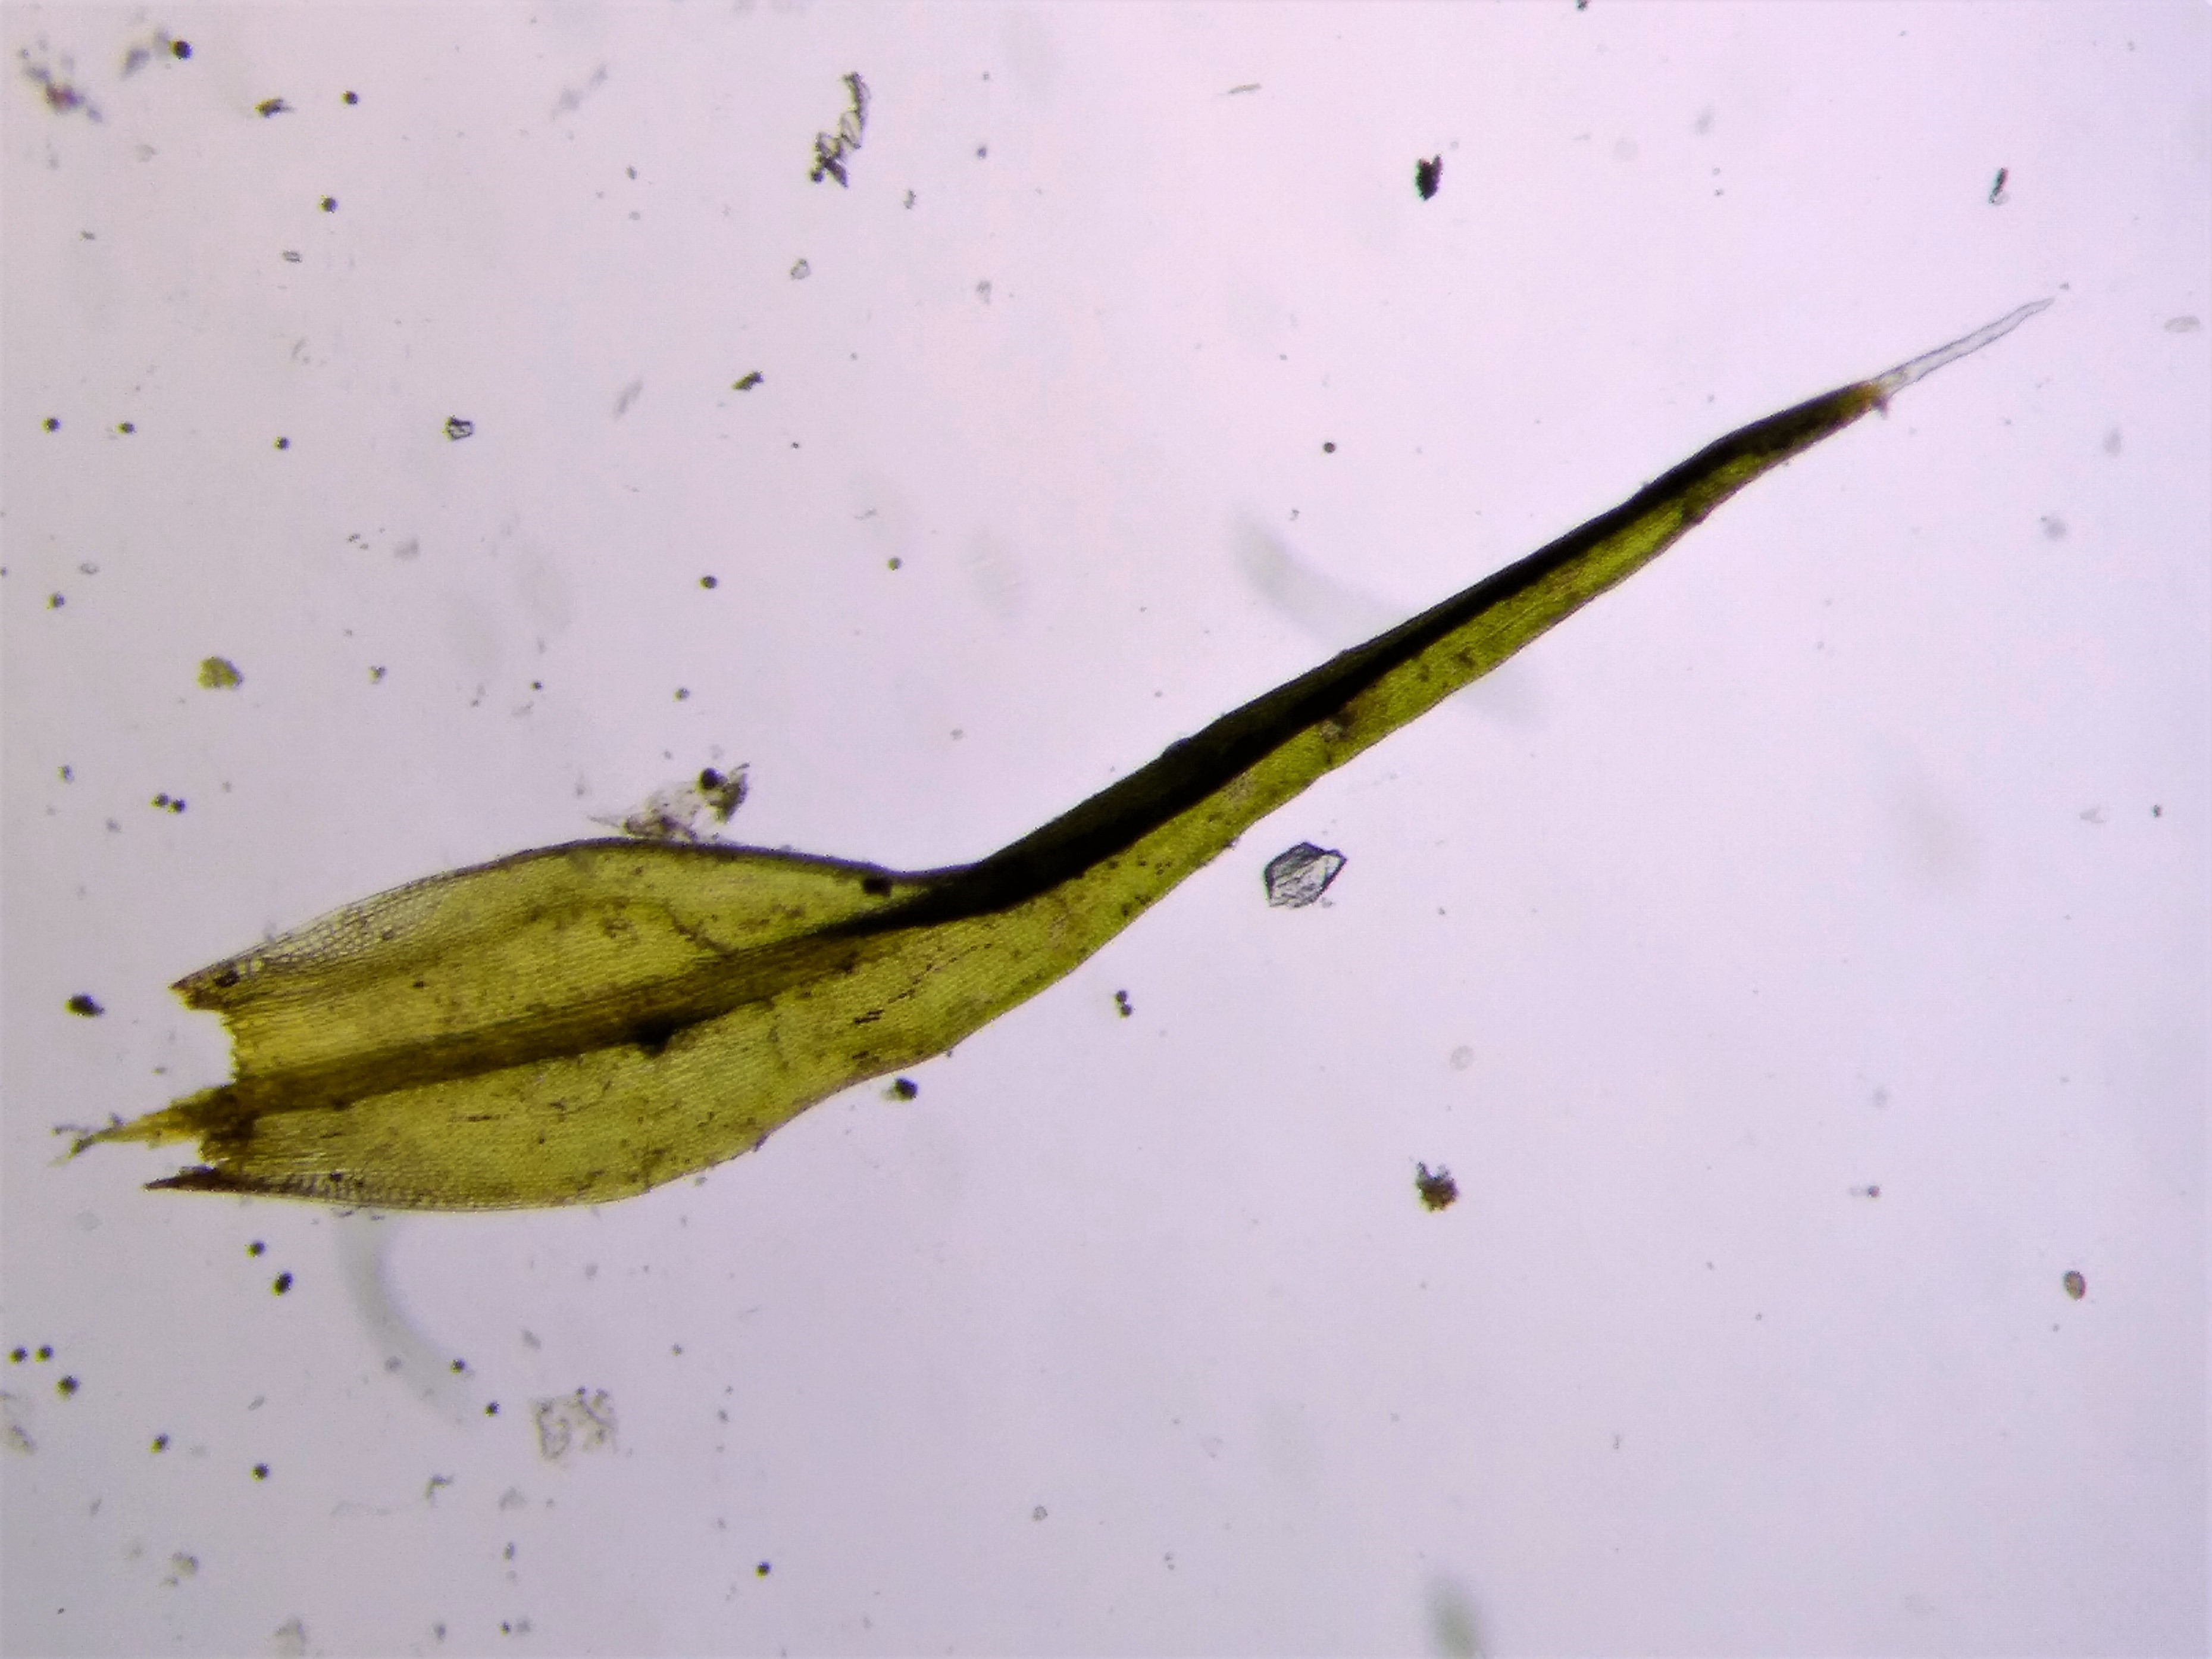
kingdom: Plantae
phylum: Bryophyta
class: Bryopsida
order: Grimmiales
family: Grimmiaceae
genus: Grimmia
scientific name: Grimmia trichophylla
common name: Glathåret gråmos
